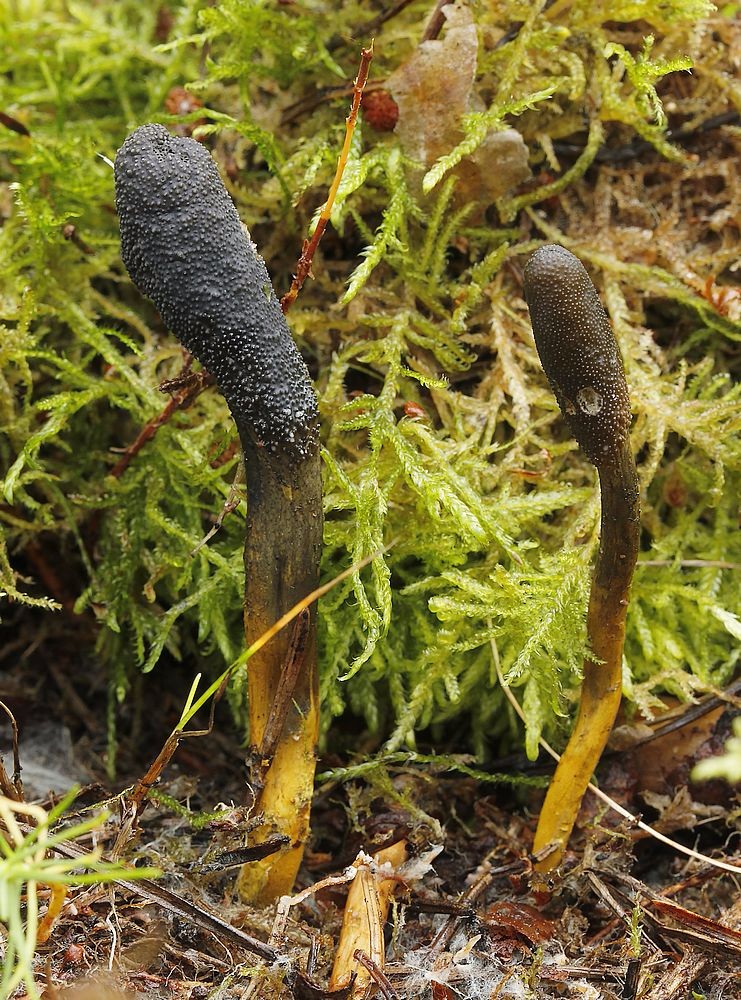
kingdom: Fungi
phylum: Ascomycota
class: Sordariomycetes
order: Hypocreales
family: Ophiocordycipitaceae
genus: Tolypocladium
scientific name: Tolypocladium ophioglossoides
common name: slank snyltekølle
